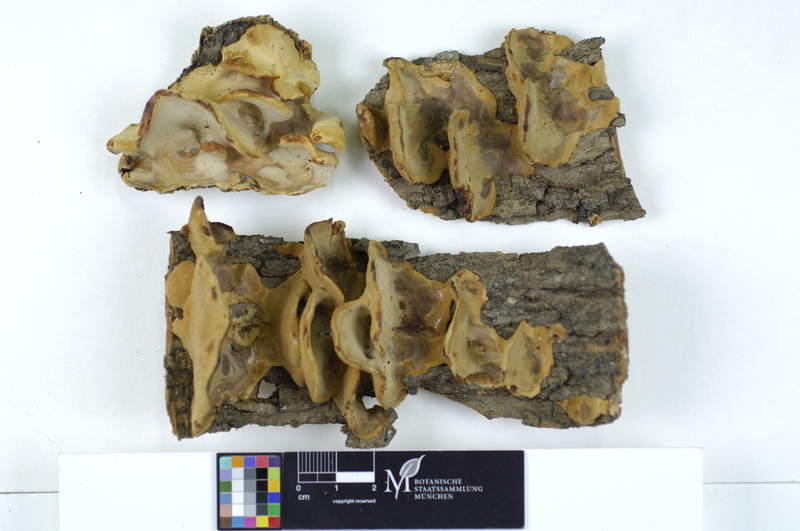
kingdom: Plantae
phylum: Tracheophyta
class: Magnoliopsida
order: Rosales
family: Ulmaceae
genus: Ulmus
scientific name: Ulmus
